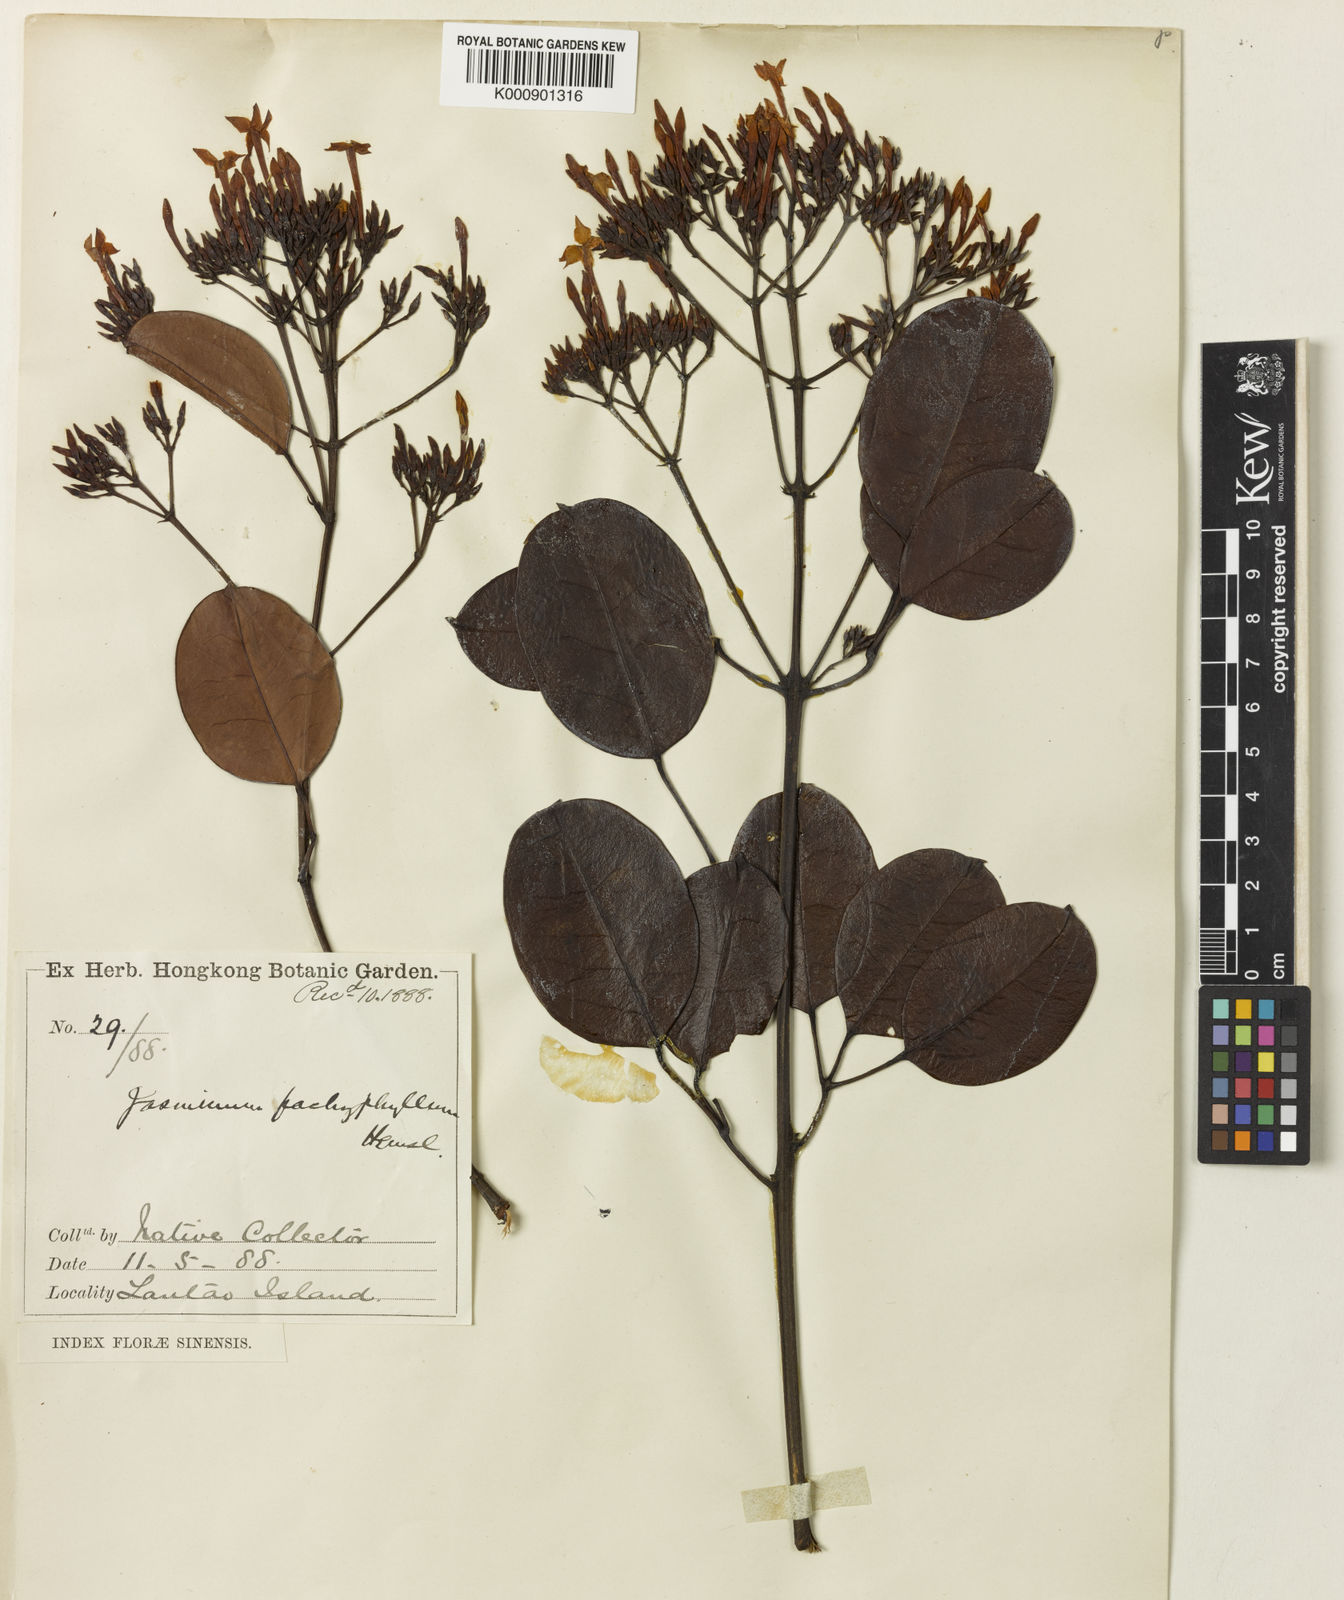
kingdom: Plantae
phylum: Tracheophyta
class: Magnoliopsida
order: Lamiales
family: Oleaceae
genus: Jasminum
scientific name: Jasminum lanceolaria
